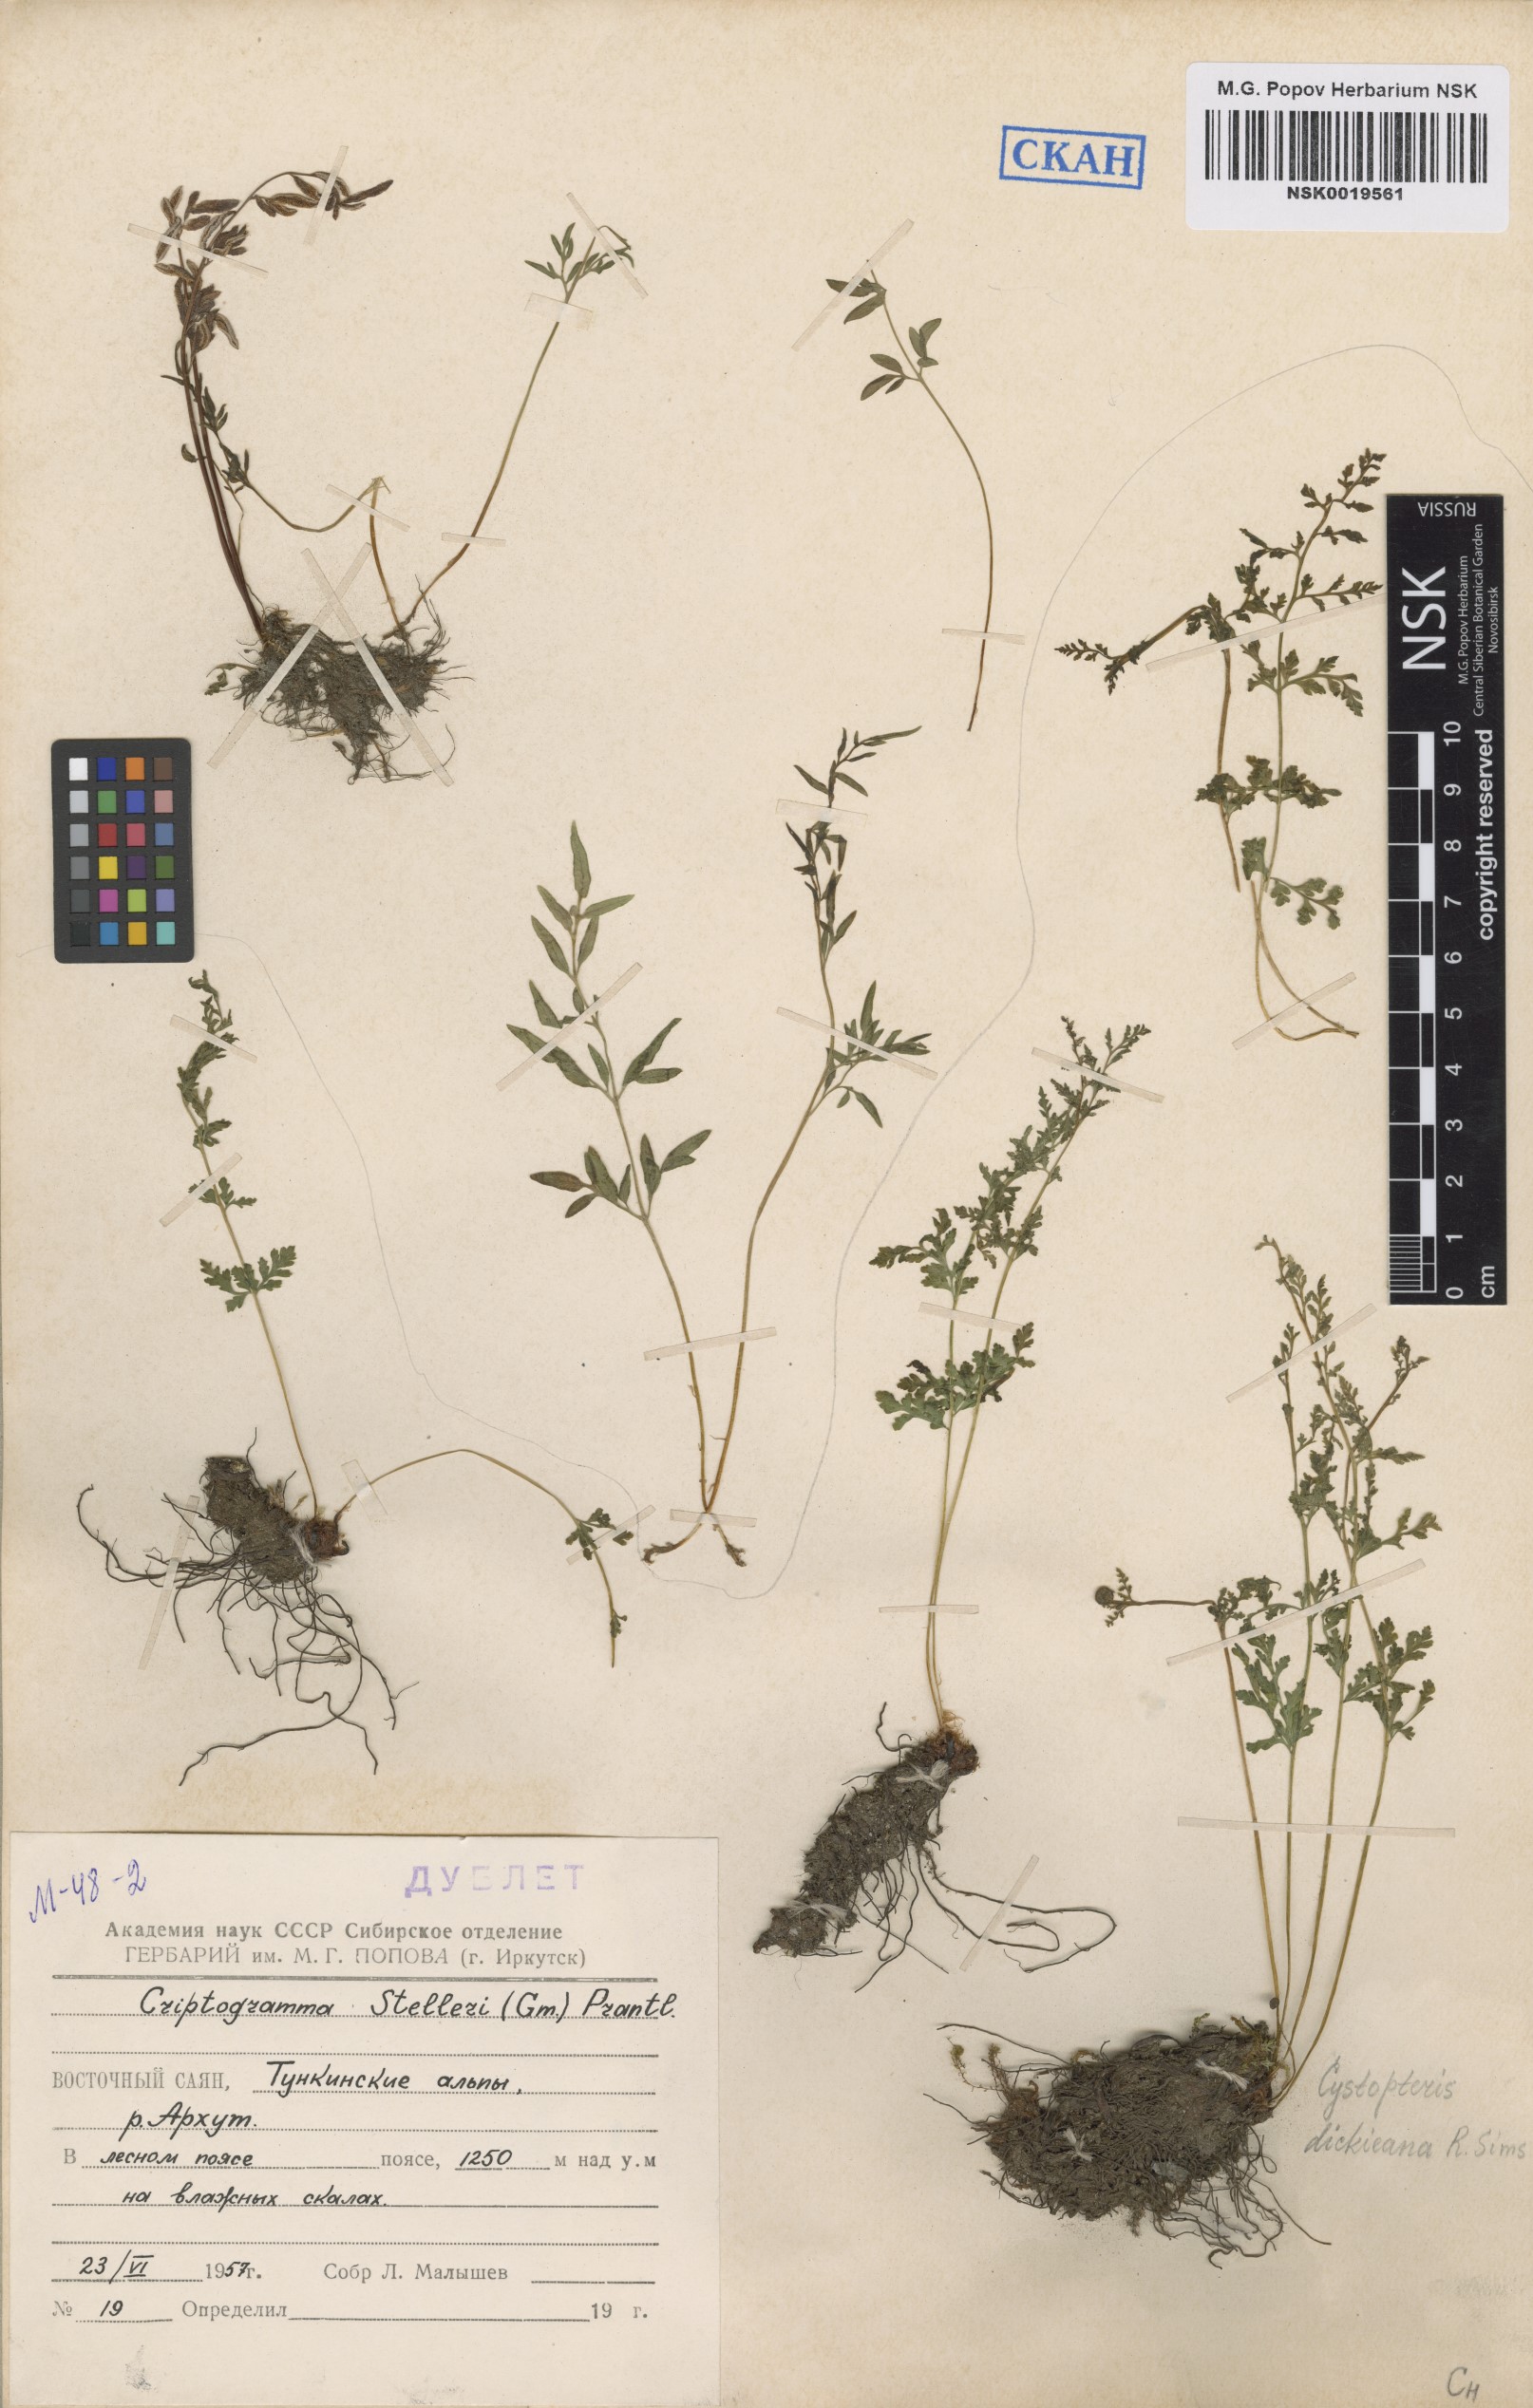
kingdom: Plantae
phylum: Tracheophyta
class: Polypodiopsida
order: Polypodiales
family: Pteridaceae
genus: Cryptogramma
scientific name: Cryptogramma stelleri
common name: Cliff-brake
